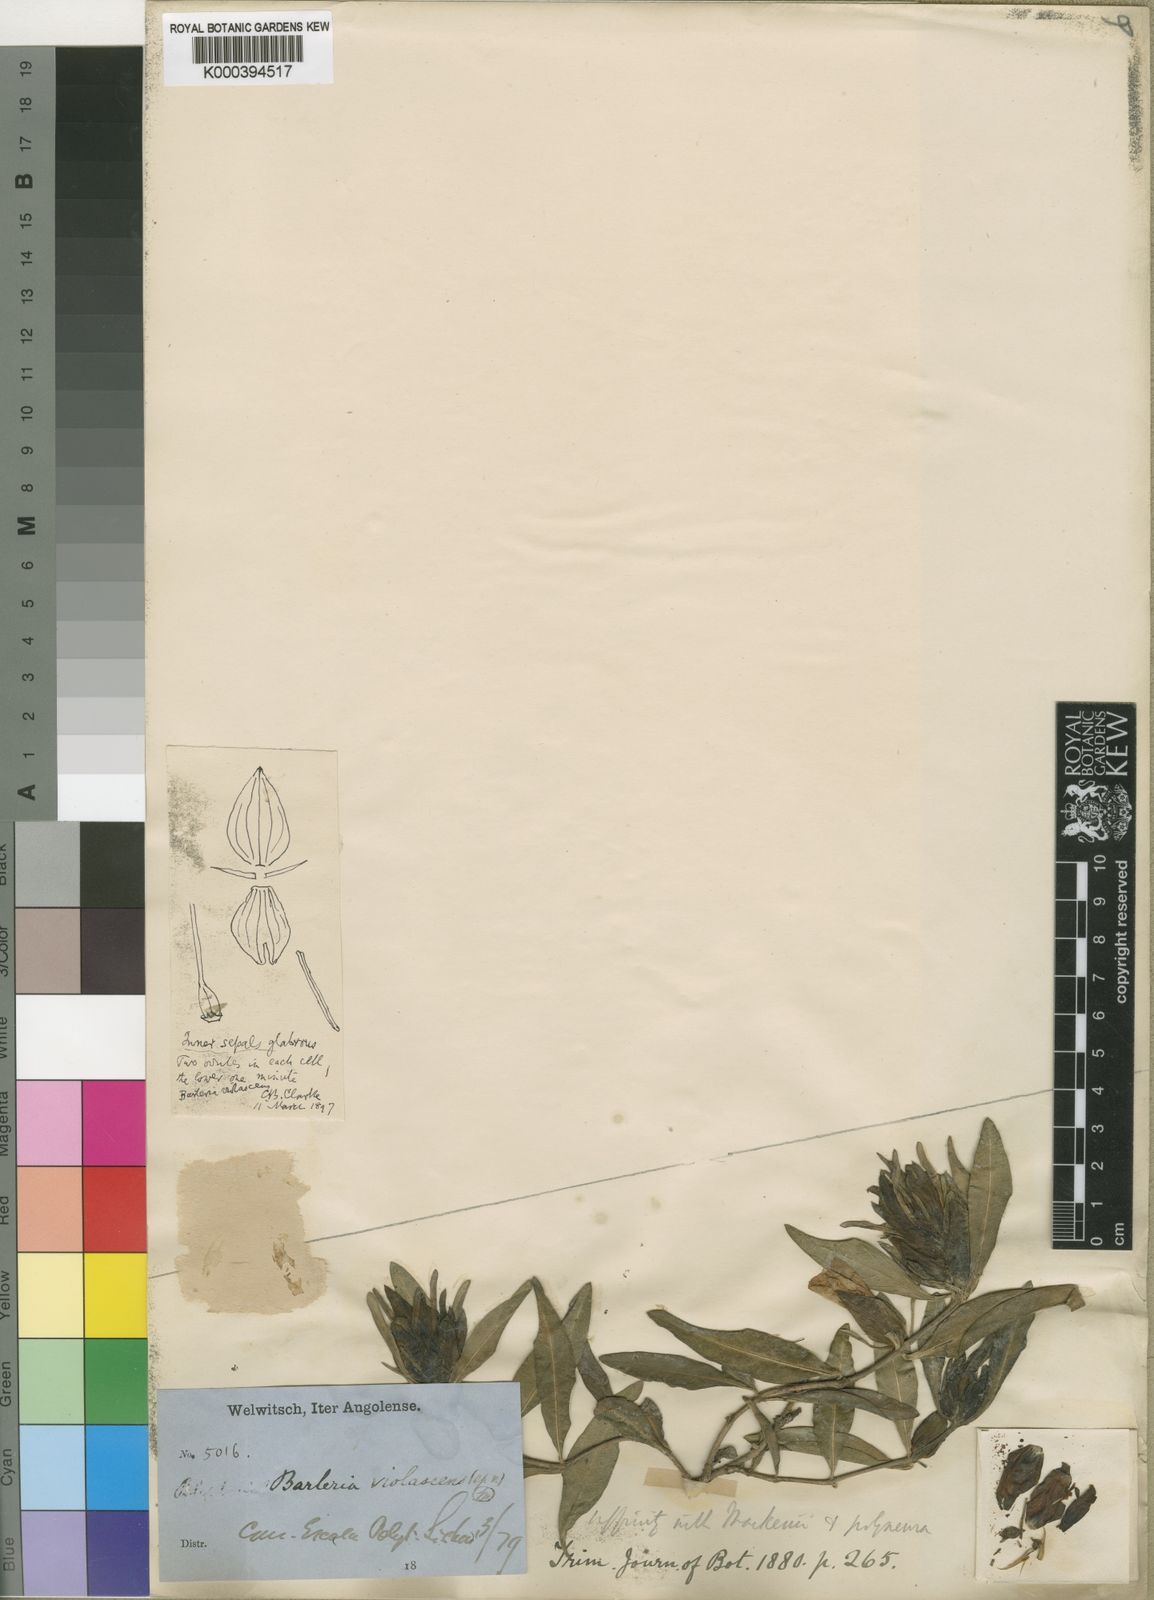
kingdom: Plantae
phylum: Tracheophyta
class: Magnoliopsida
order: Lamiales
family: Acanthaceae
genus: Barleria
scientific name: Barleria violascens
